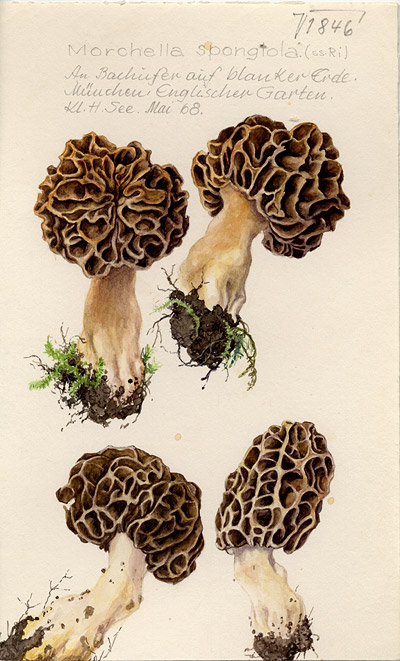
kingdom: Fungi
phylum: Ascomycota
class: Pezizomycetes
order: Pezizales
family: Morchellaceae
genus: Morchella
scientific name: Morchella esculenta
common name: Morel
